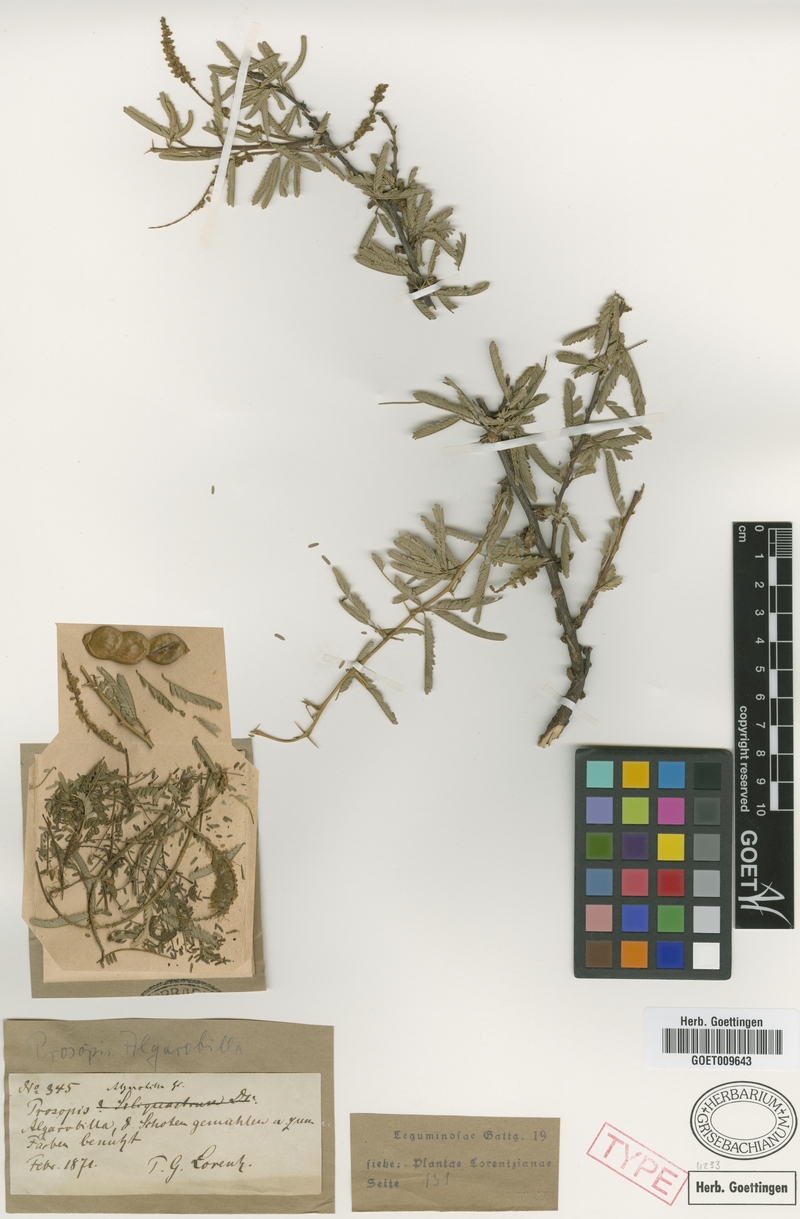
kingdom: Plantae
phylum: Tracheophyta
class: Magnoliopsida
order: Fabales
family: Fabaceae
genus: Prosopis
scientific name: Prosopis affinis
